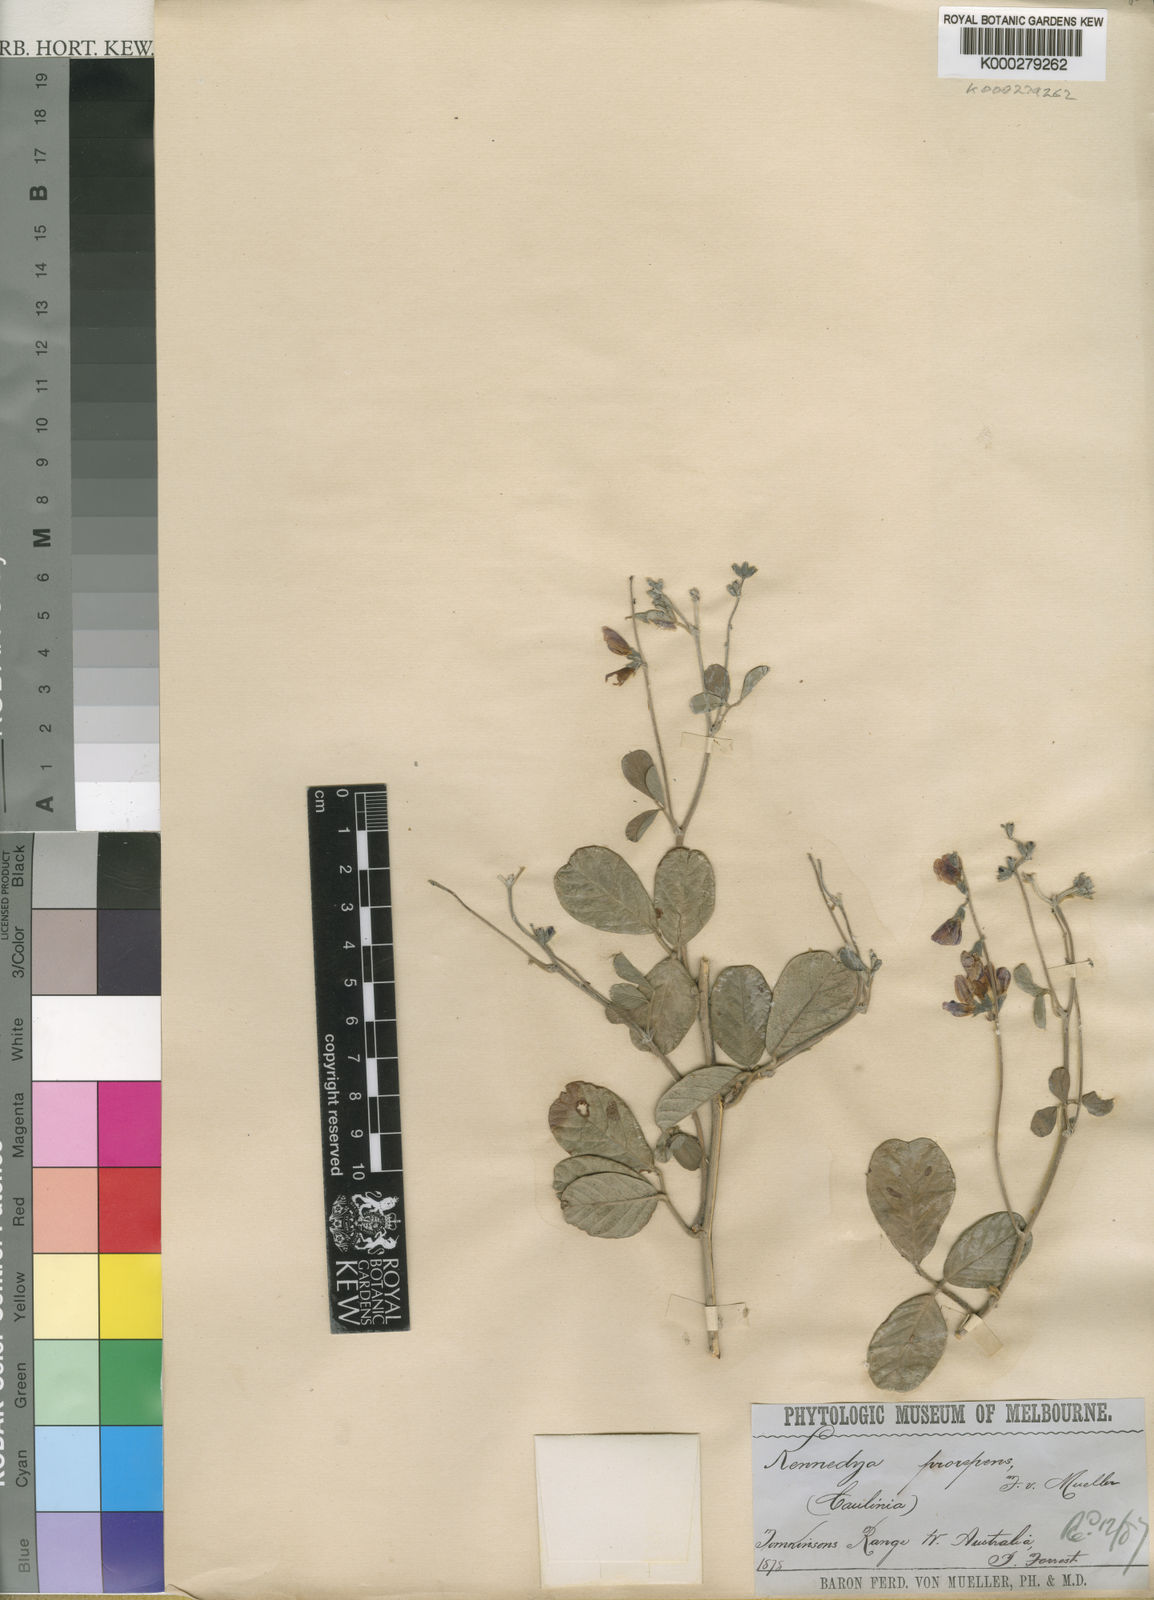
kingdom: Plantae
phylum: Tracheophyta
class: Magnoliopsida
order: Fabales
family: Fabaceae
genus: Kennedia
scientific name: Kennedia prorepens
